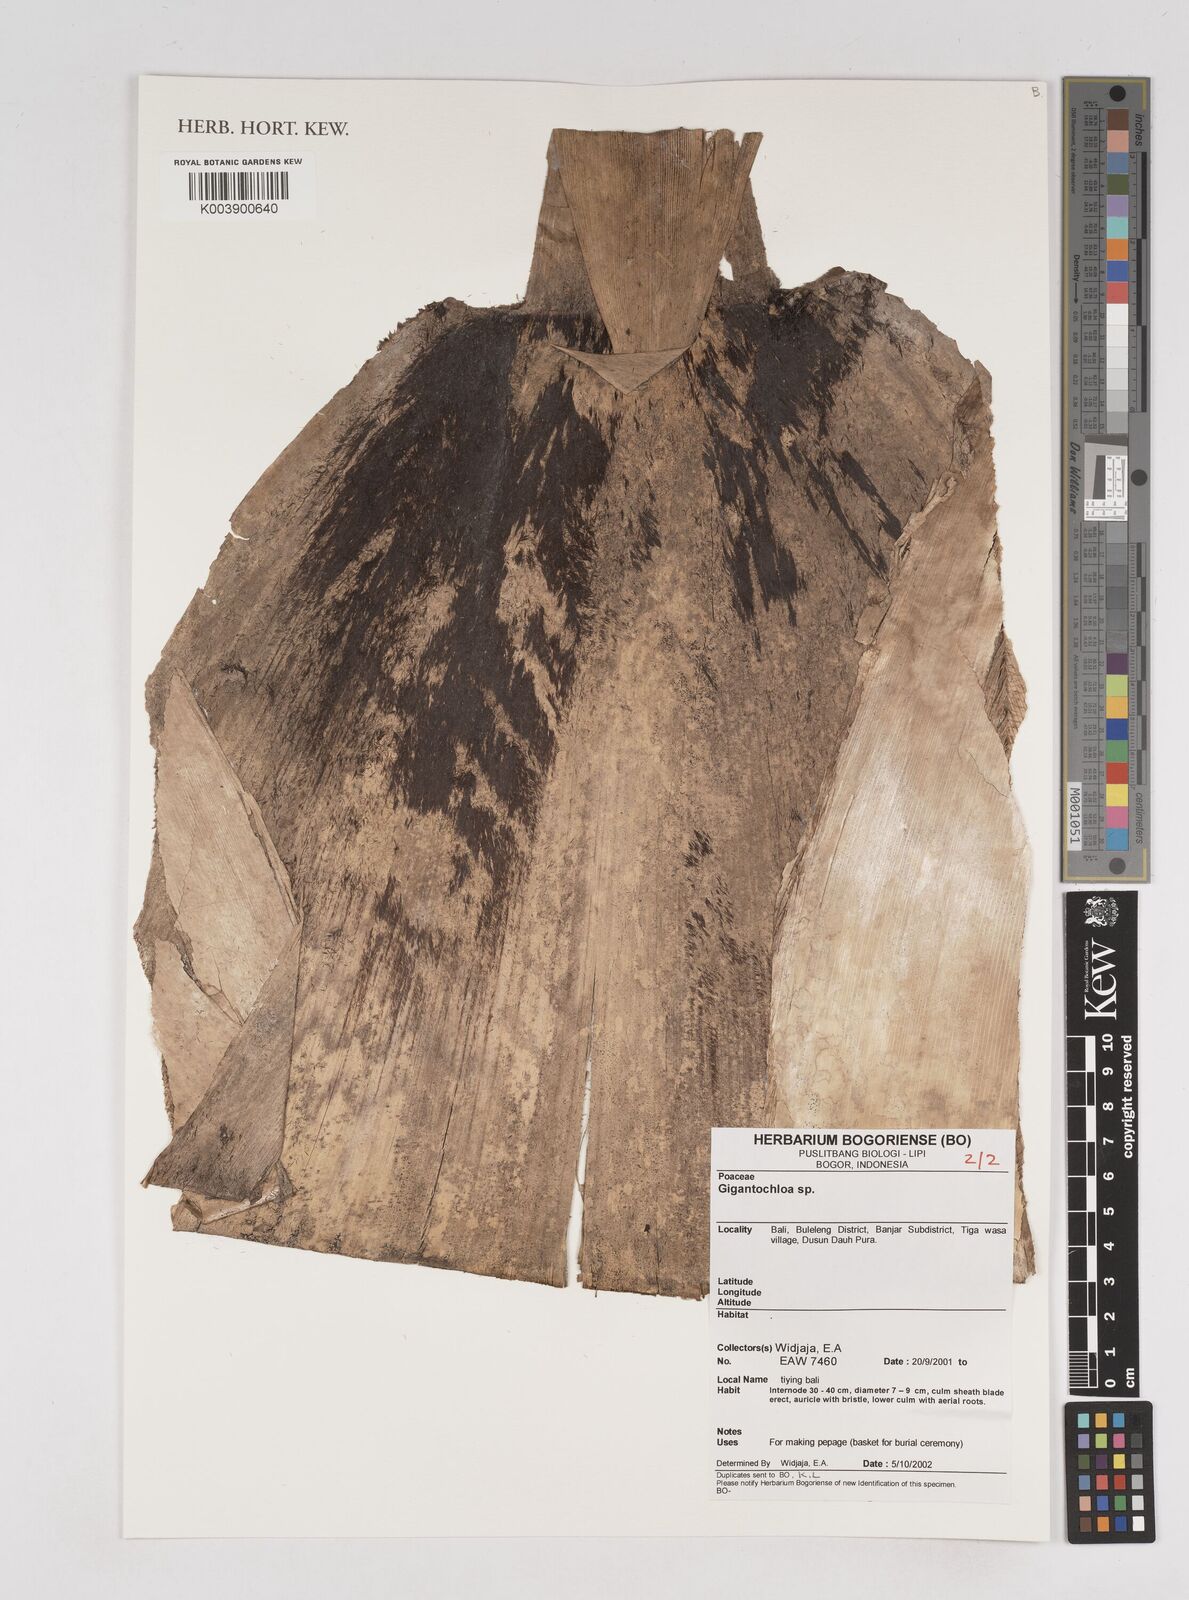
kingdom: Plantae
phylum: Tracheophyta
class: Liliopsida
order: Poales
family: Poaceae
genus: Gigantochloa
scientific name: Gigantochloa
